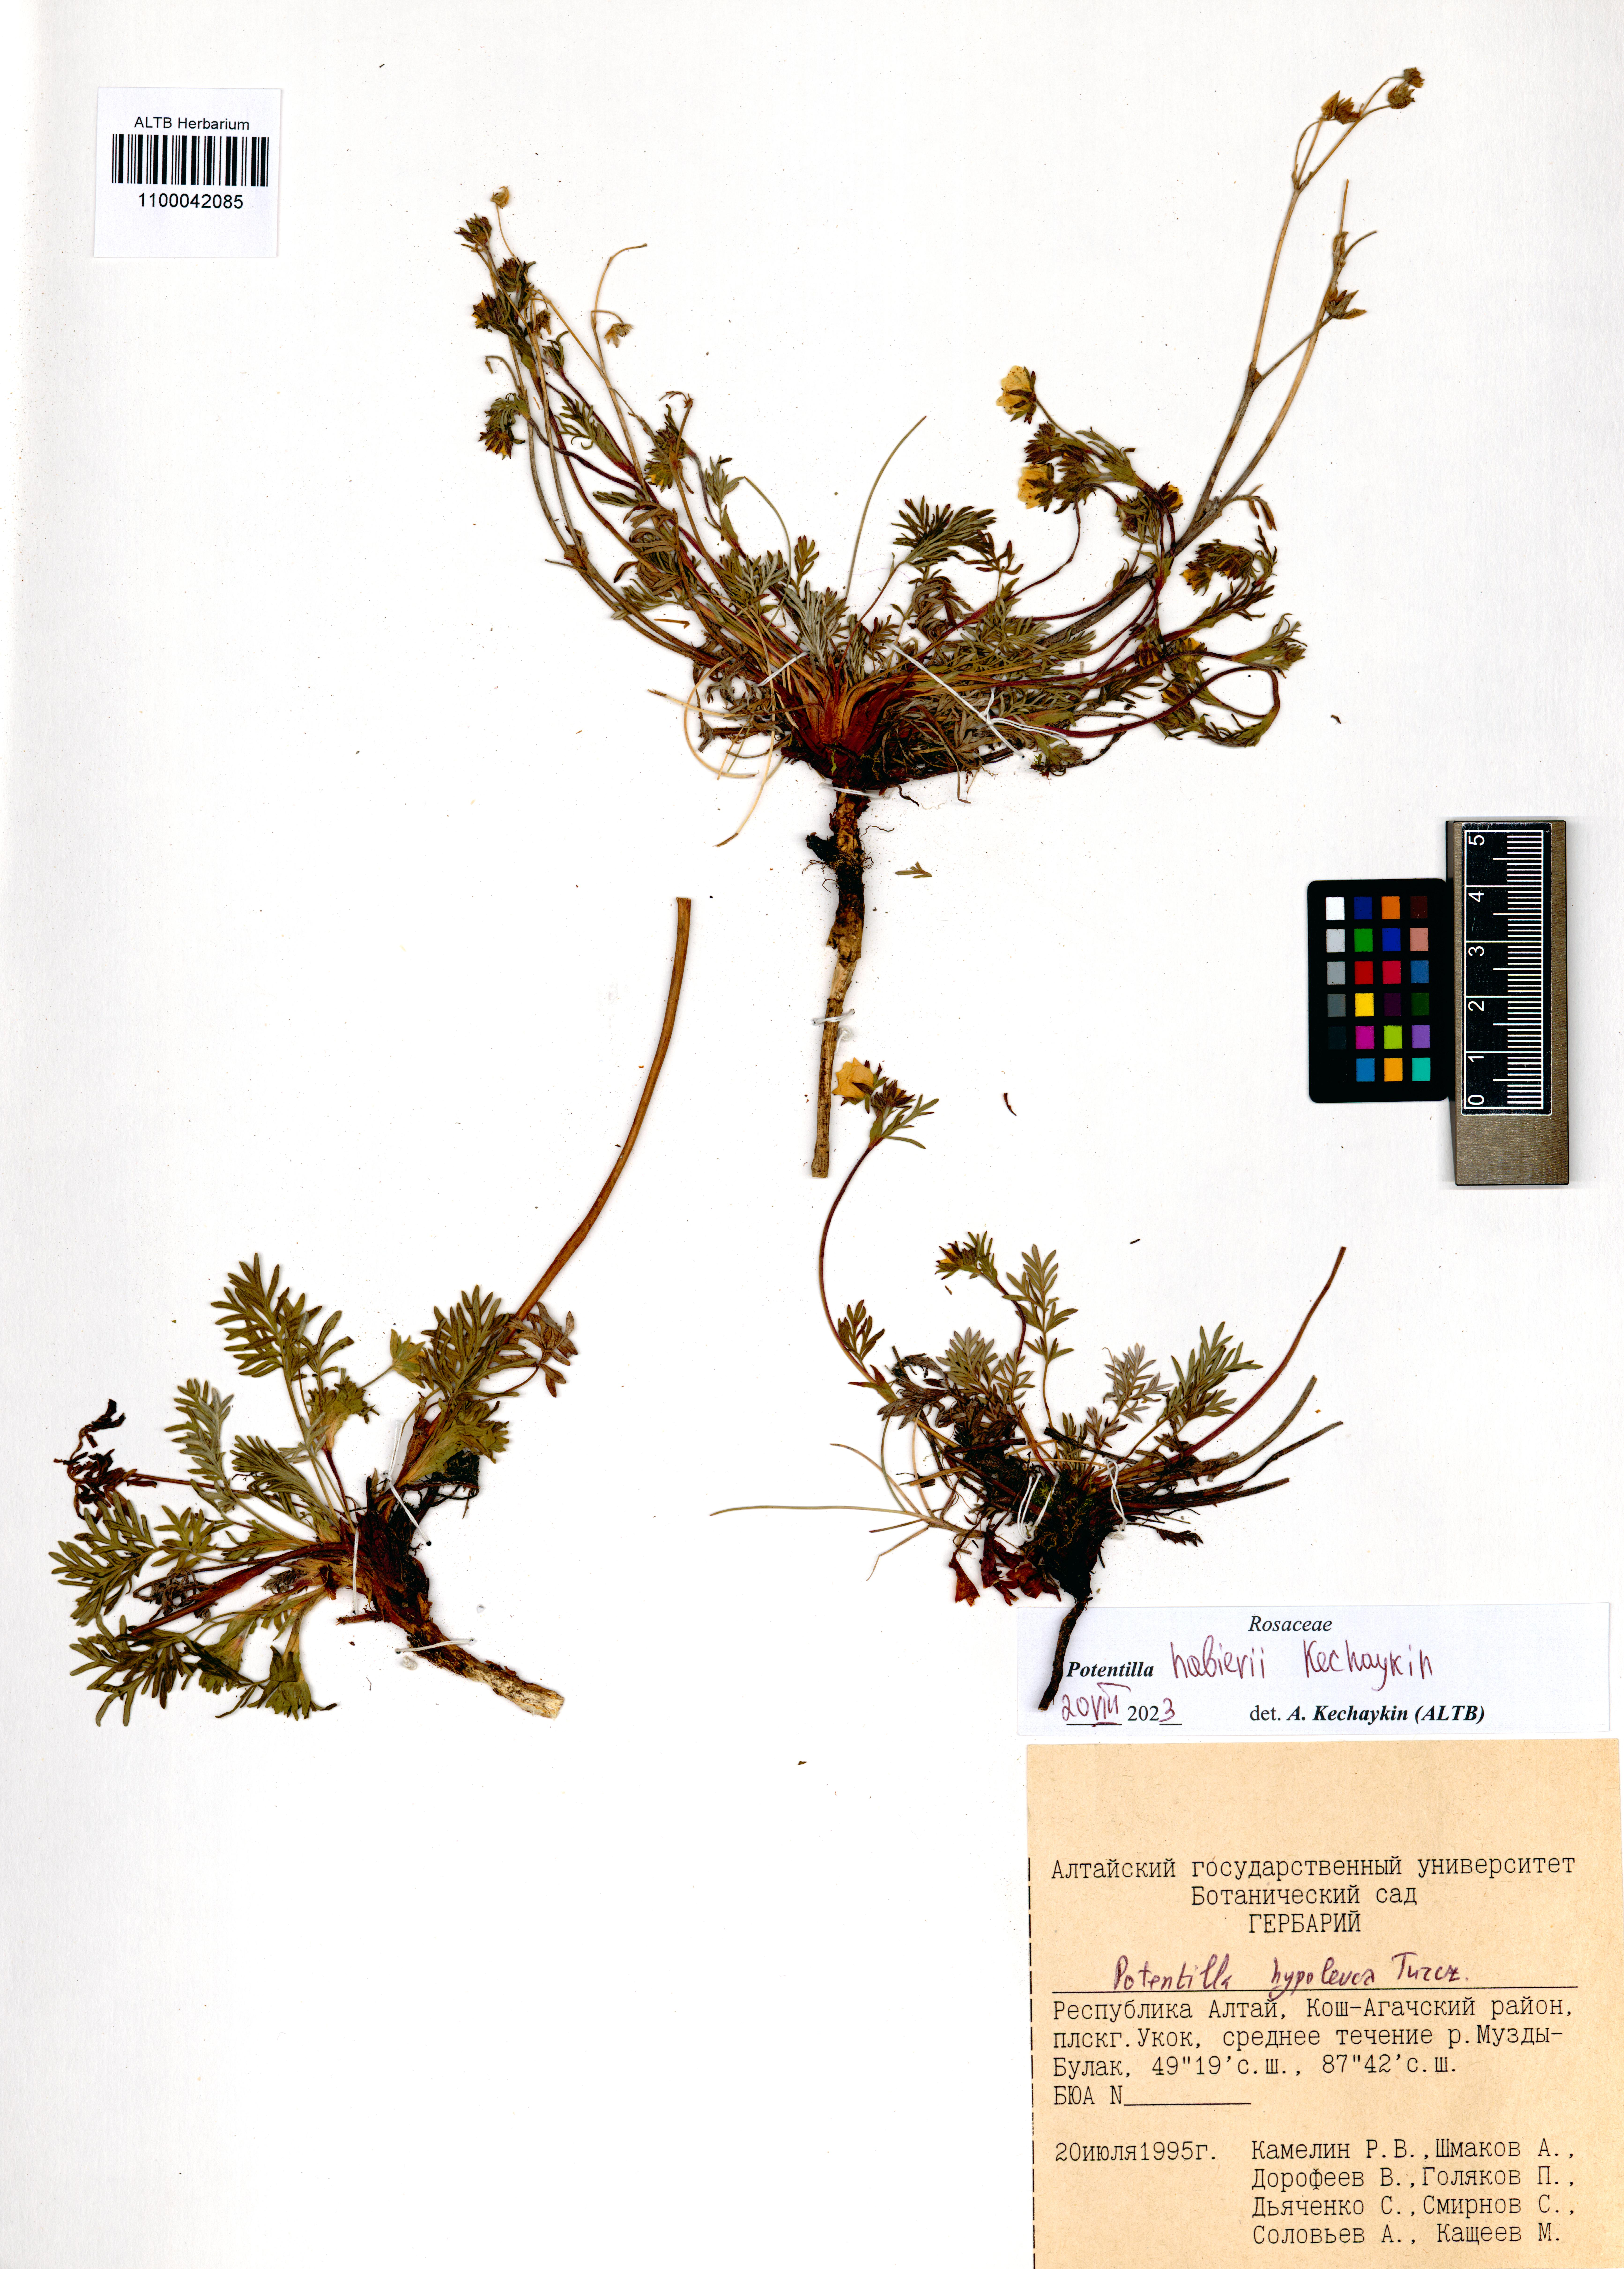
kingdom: Plantae
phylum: Tracheophyta
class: Magnoliopsida
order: Rosales
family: Rosaceae
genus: Potentilla
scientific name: Potentilla habievii
